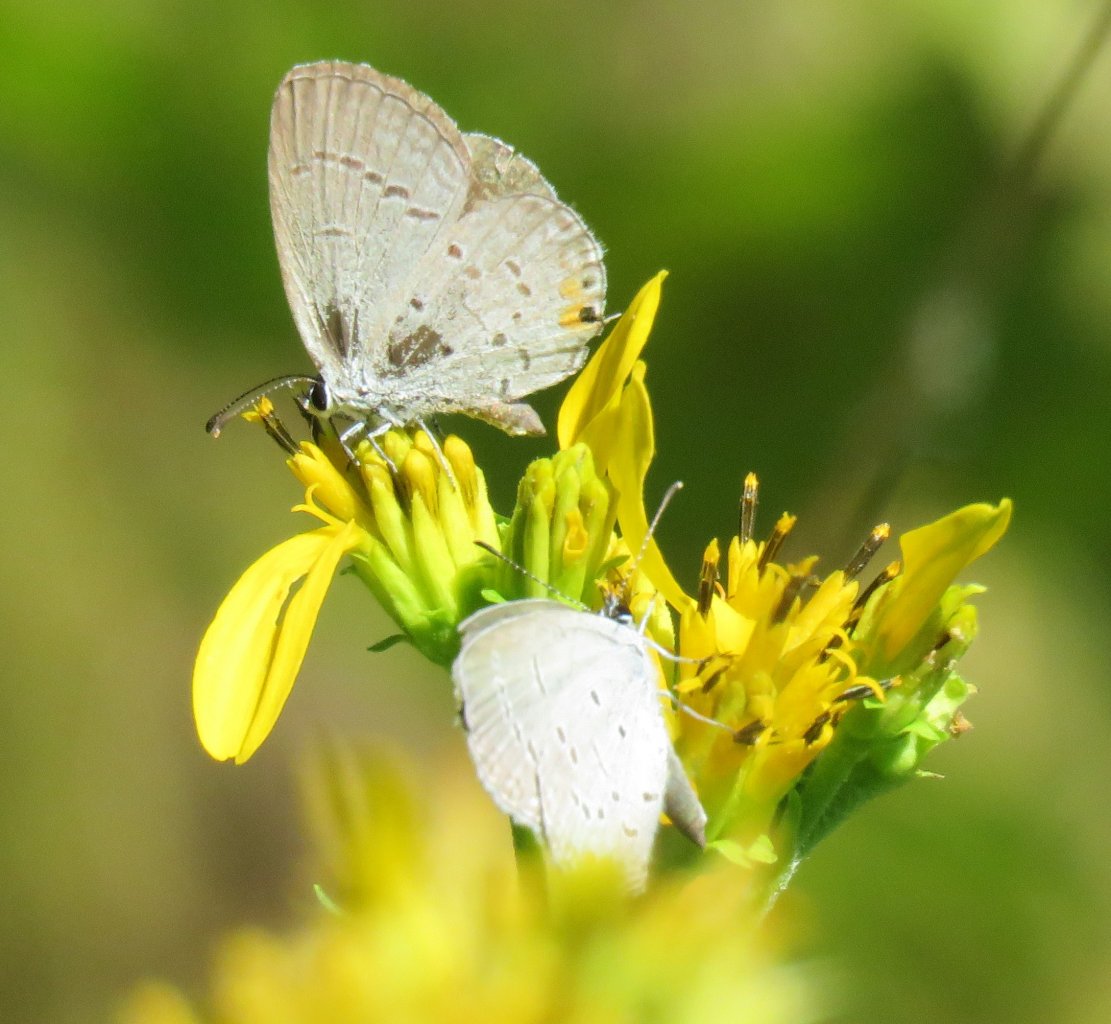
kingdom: Animalia
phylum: Arthropoda
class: Insecta
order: Lepidoptera
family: Lycaenidae
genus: Elkalyce
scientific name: Elkalyce comyntas
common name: Eastern Tailed-Blue
